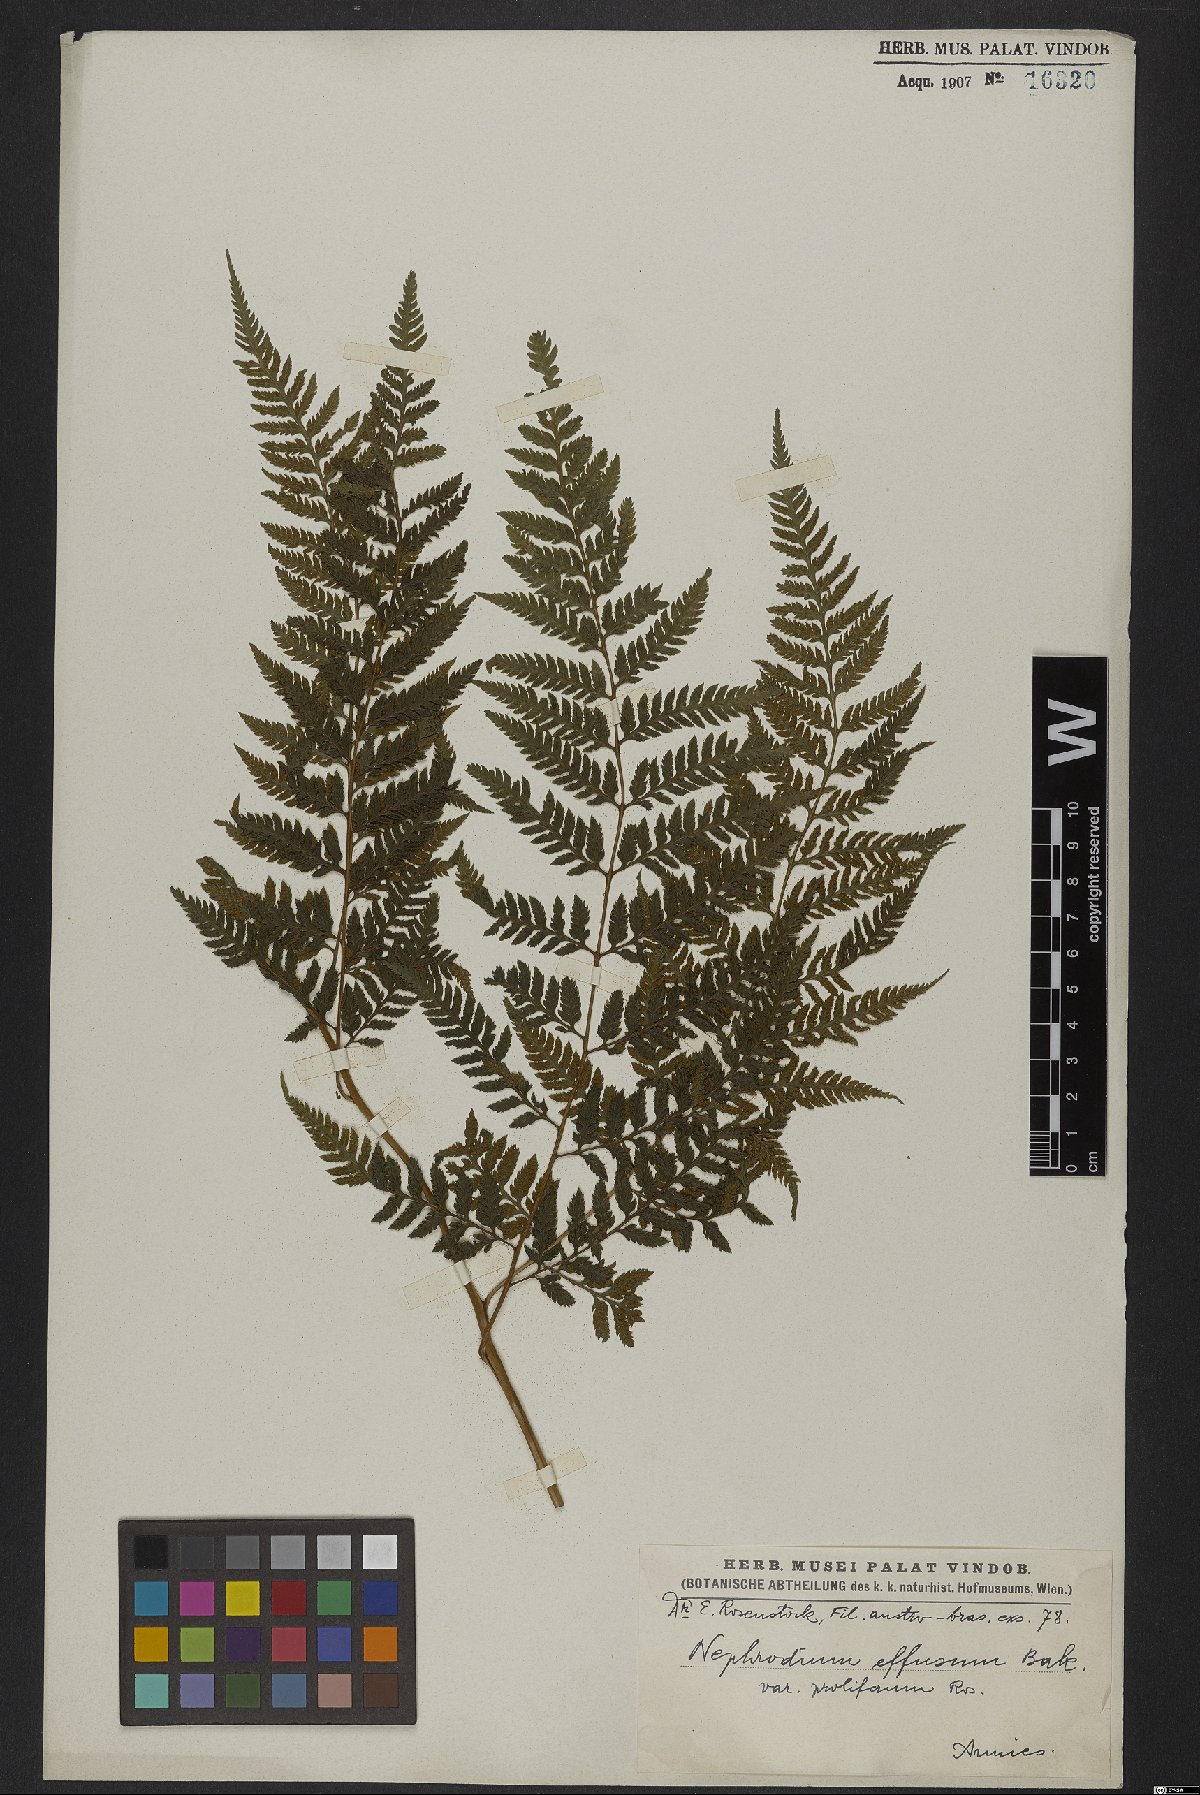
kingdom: Plantae
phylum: Tracheophyta
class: Polypodiopsida
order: Polypodiales
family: Dryopteridaceae
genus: Parapolystichum
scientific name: Parapolystichum effusum
